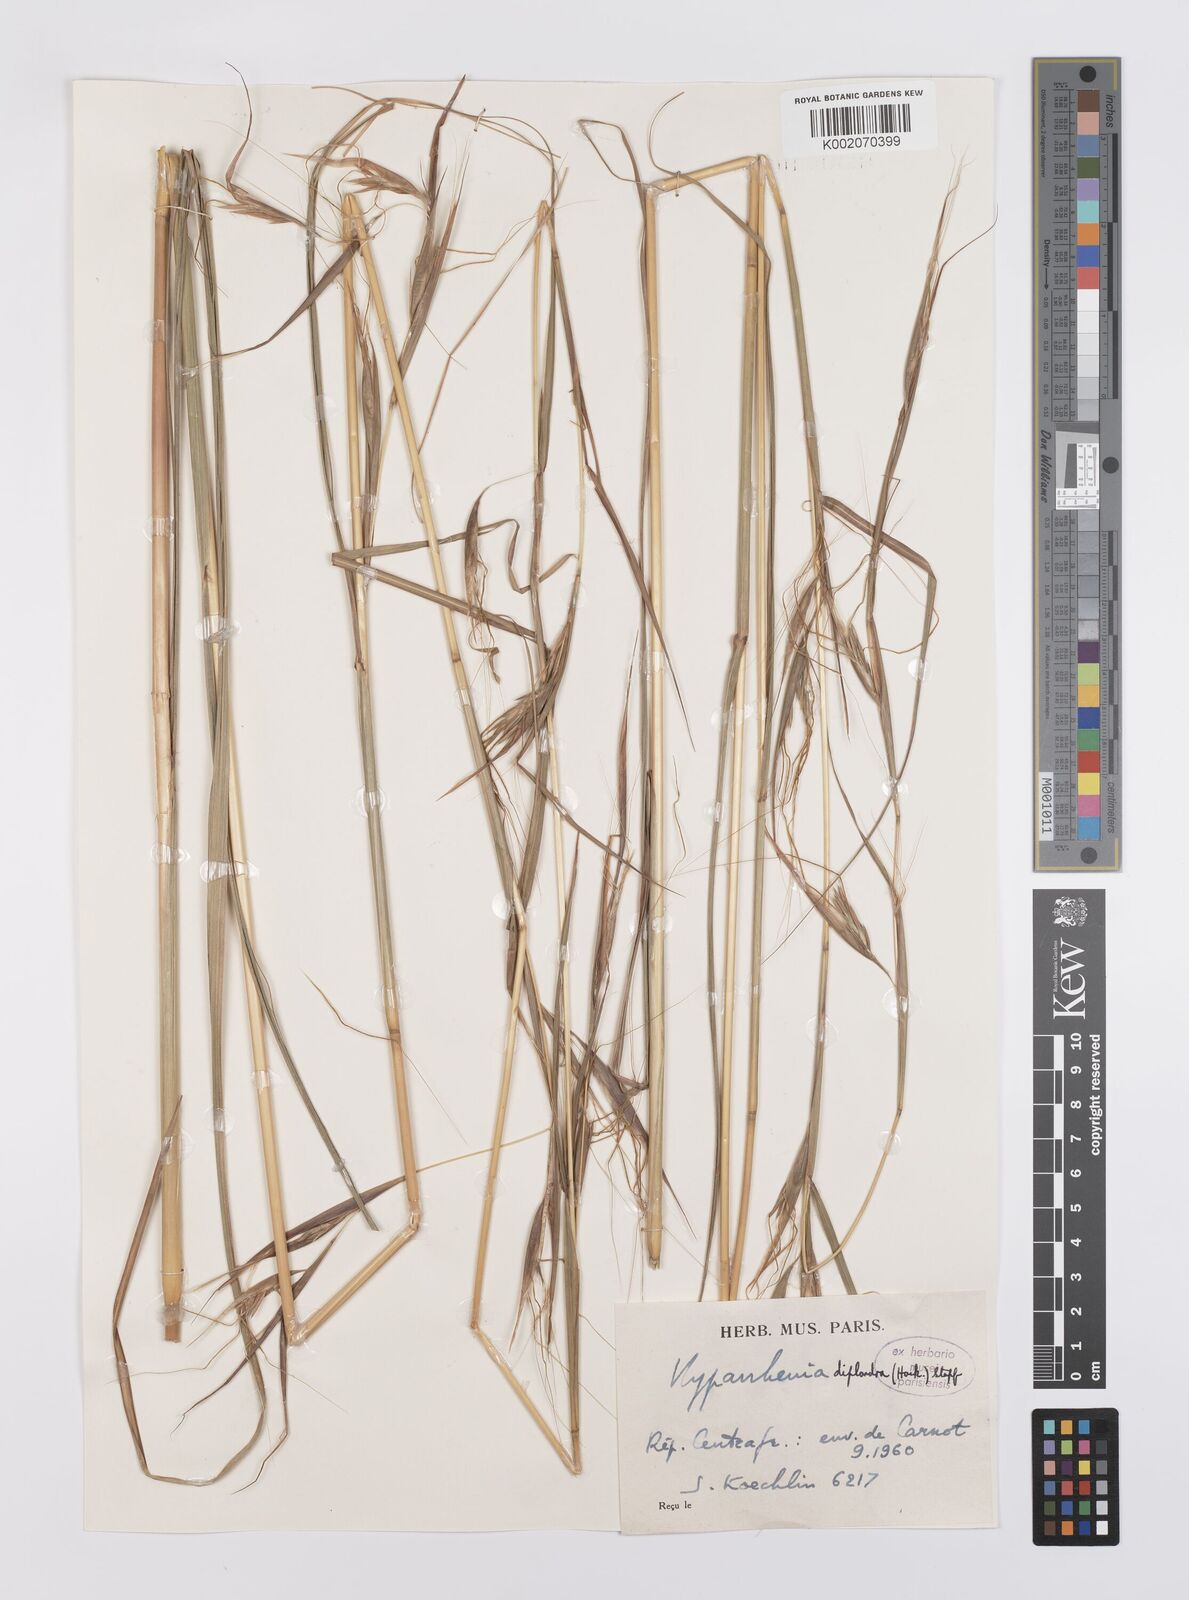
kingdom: Plantae
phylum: Tracheophyta
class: Liliopsida
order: Poales
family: Poaceae
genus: Hyparrhenia
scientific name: Hyparrhenia diplandra
